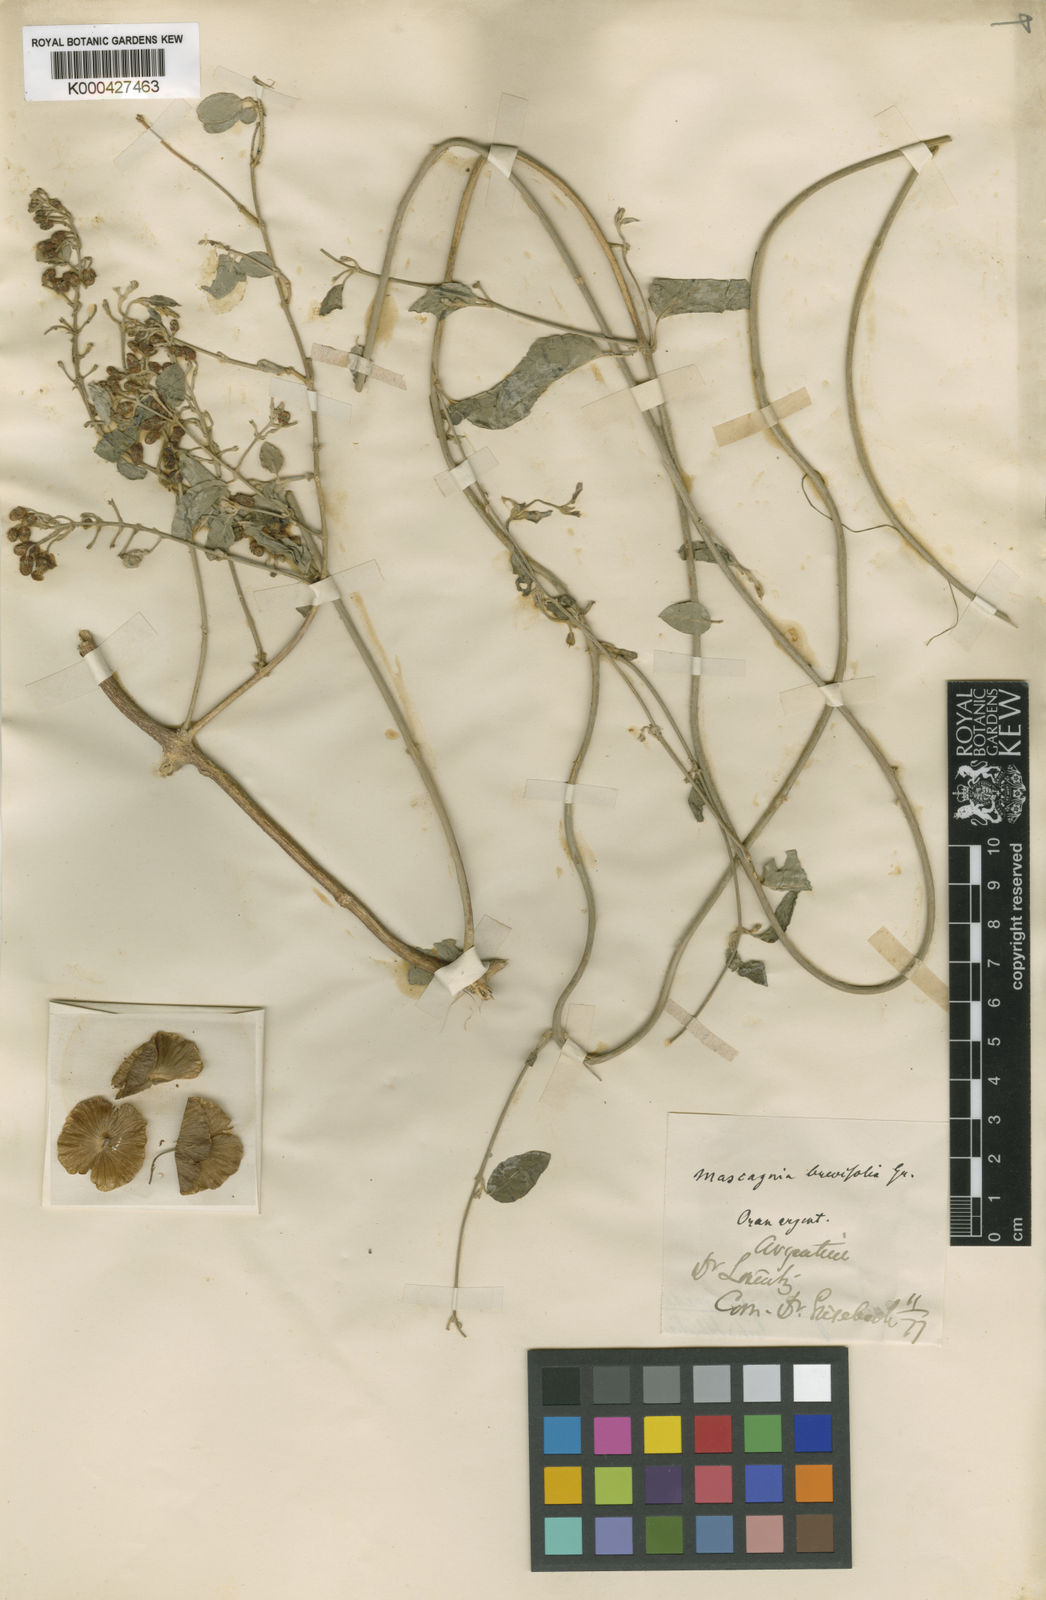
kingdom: Plantae
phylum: Tracheophyta
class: Magnoliopsida
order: Malpighiales
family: Malpighiaceae
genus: Mascagnia
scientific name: Mascagnia brevifolia
